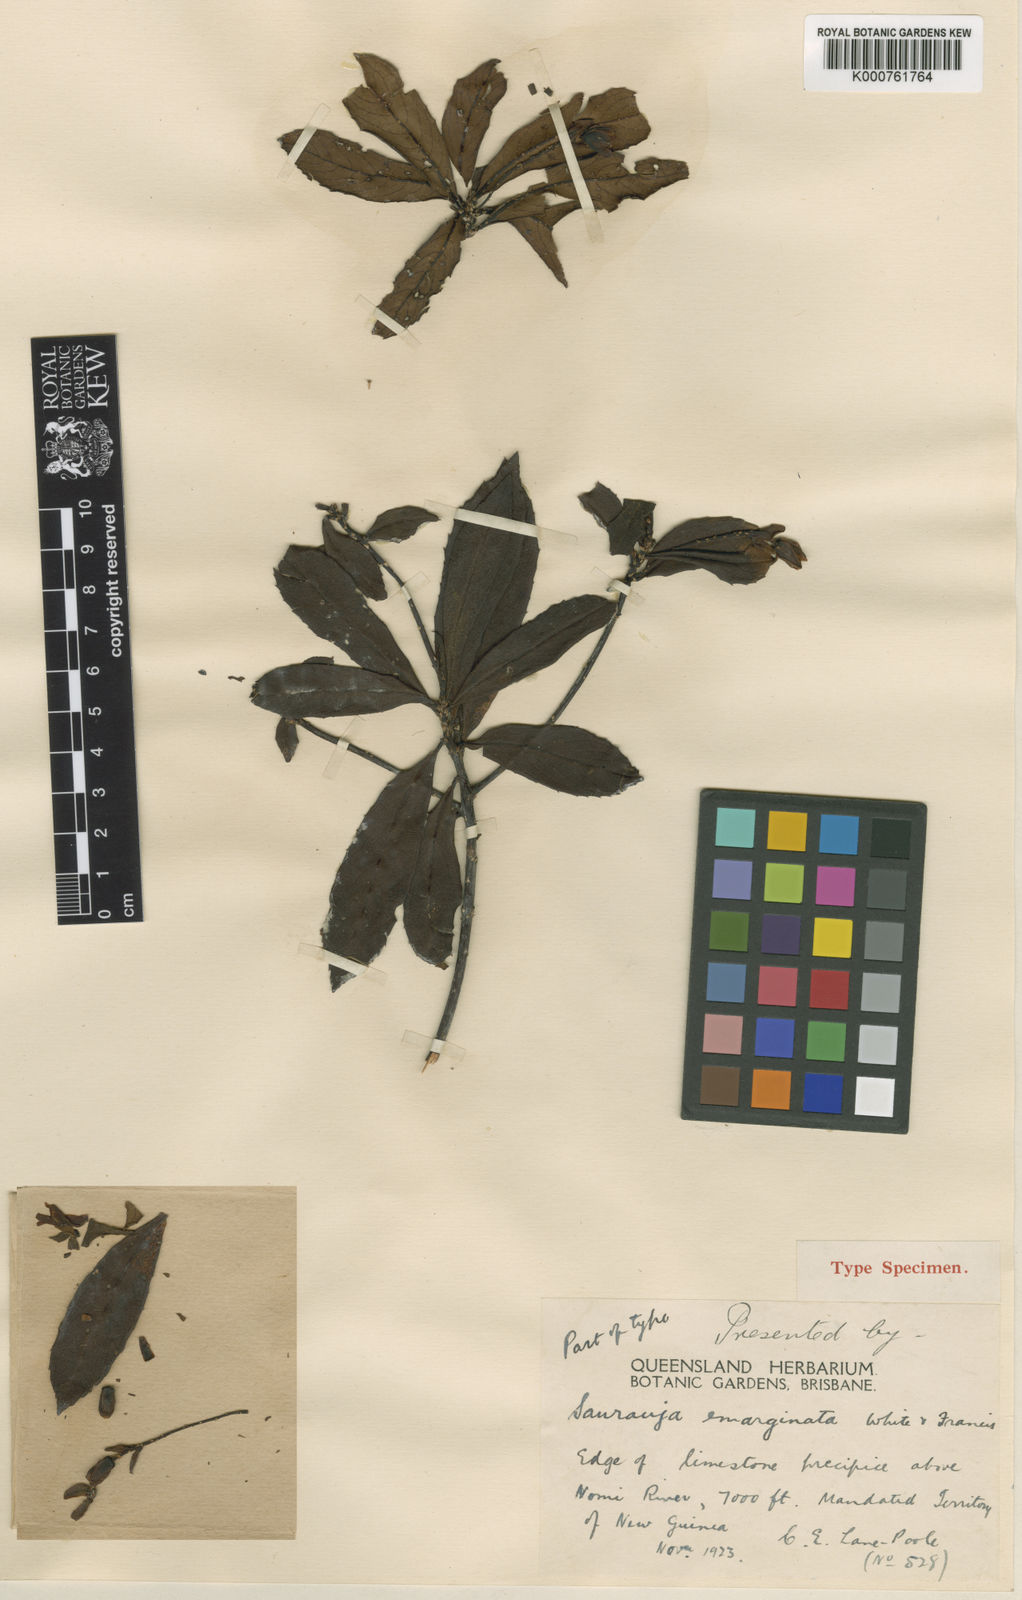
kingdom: Plantae
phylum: Tracheophyta
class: Magnoliopsida
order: Ericales
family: Actinidiaceae
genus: Saurauia
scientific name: Saurauia emarginata
